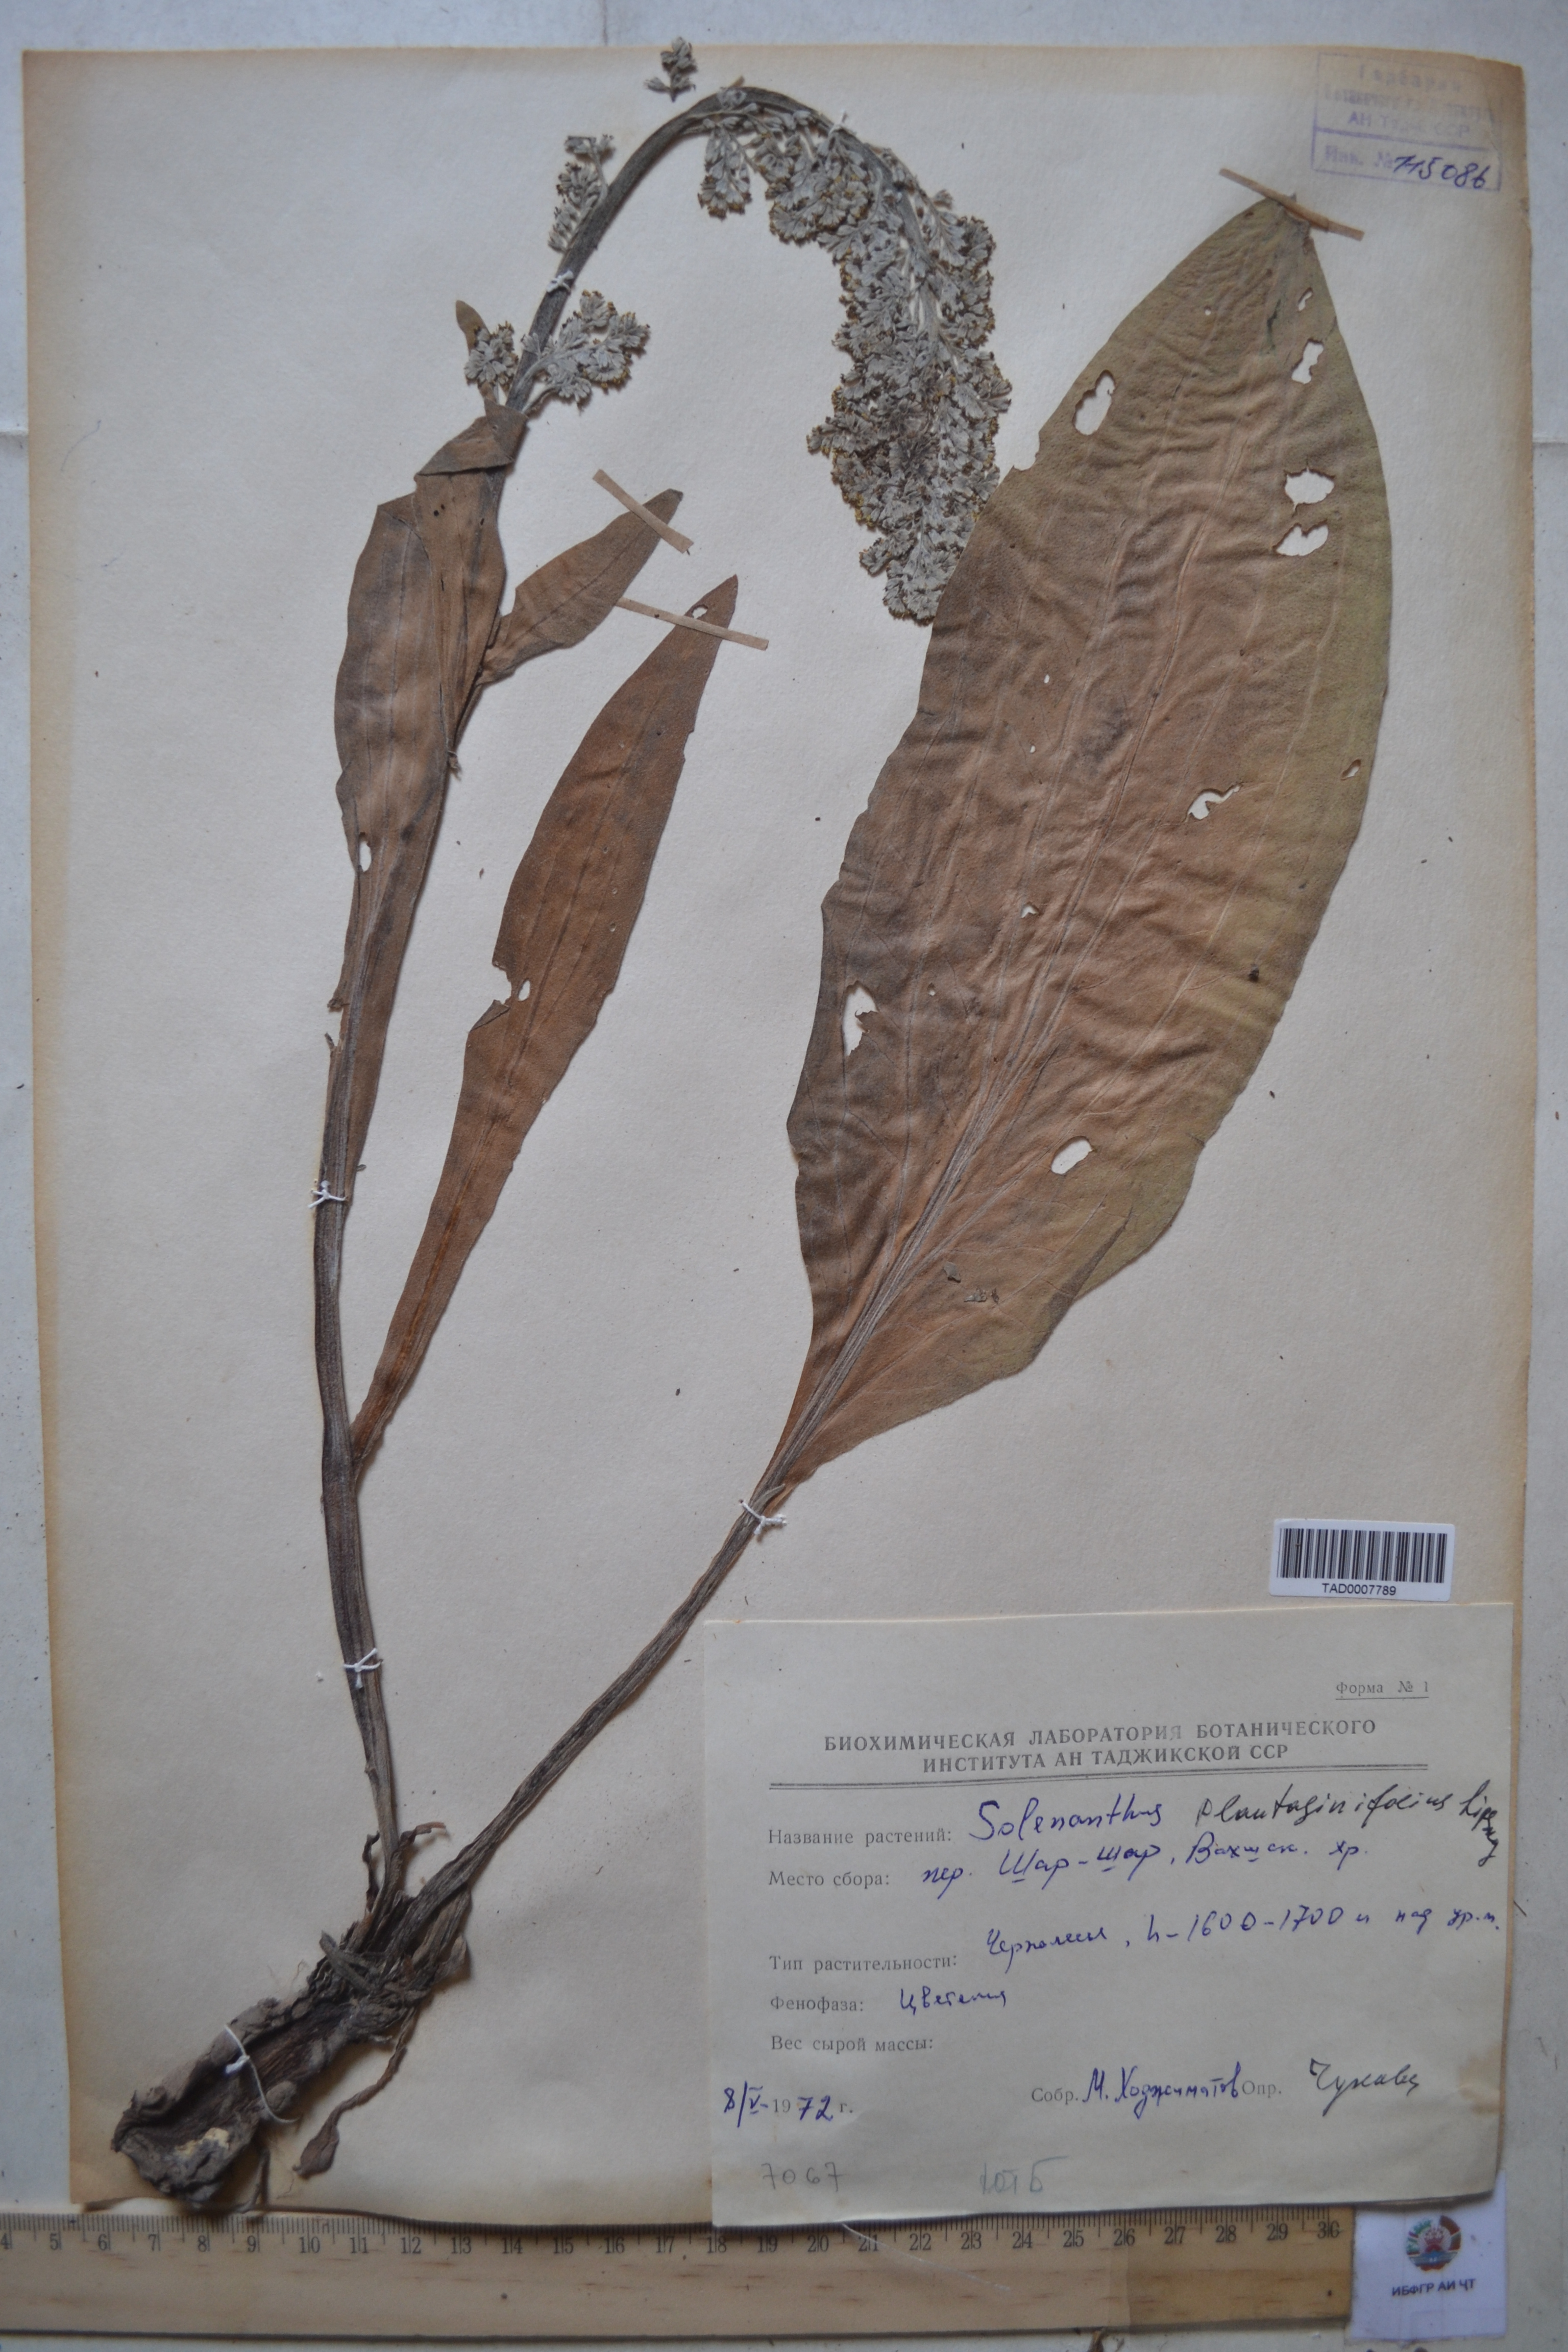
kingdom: Plantae
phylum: Tracheophyta
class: Magnoliopsida
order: Boraginales
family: Boraginaceae
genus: Solenanthus
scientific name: Solenanthus plantaginifolius
